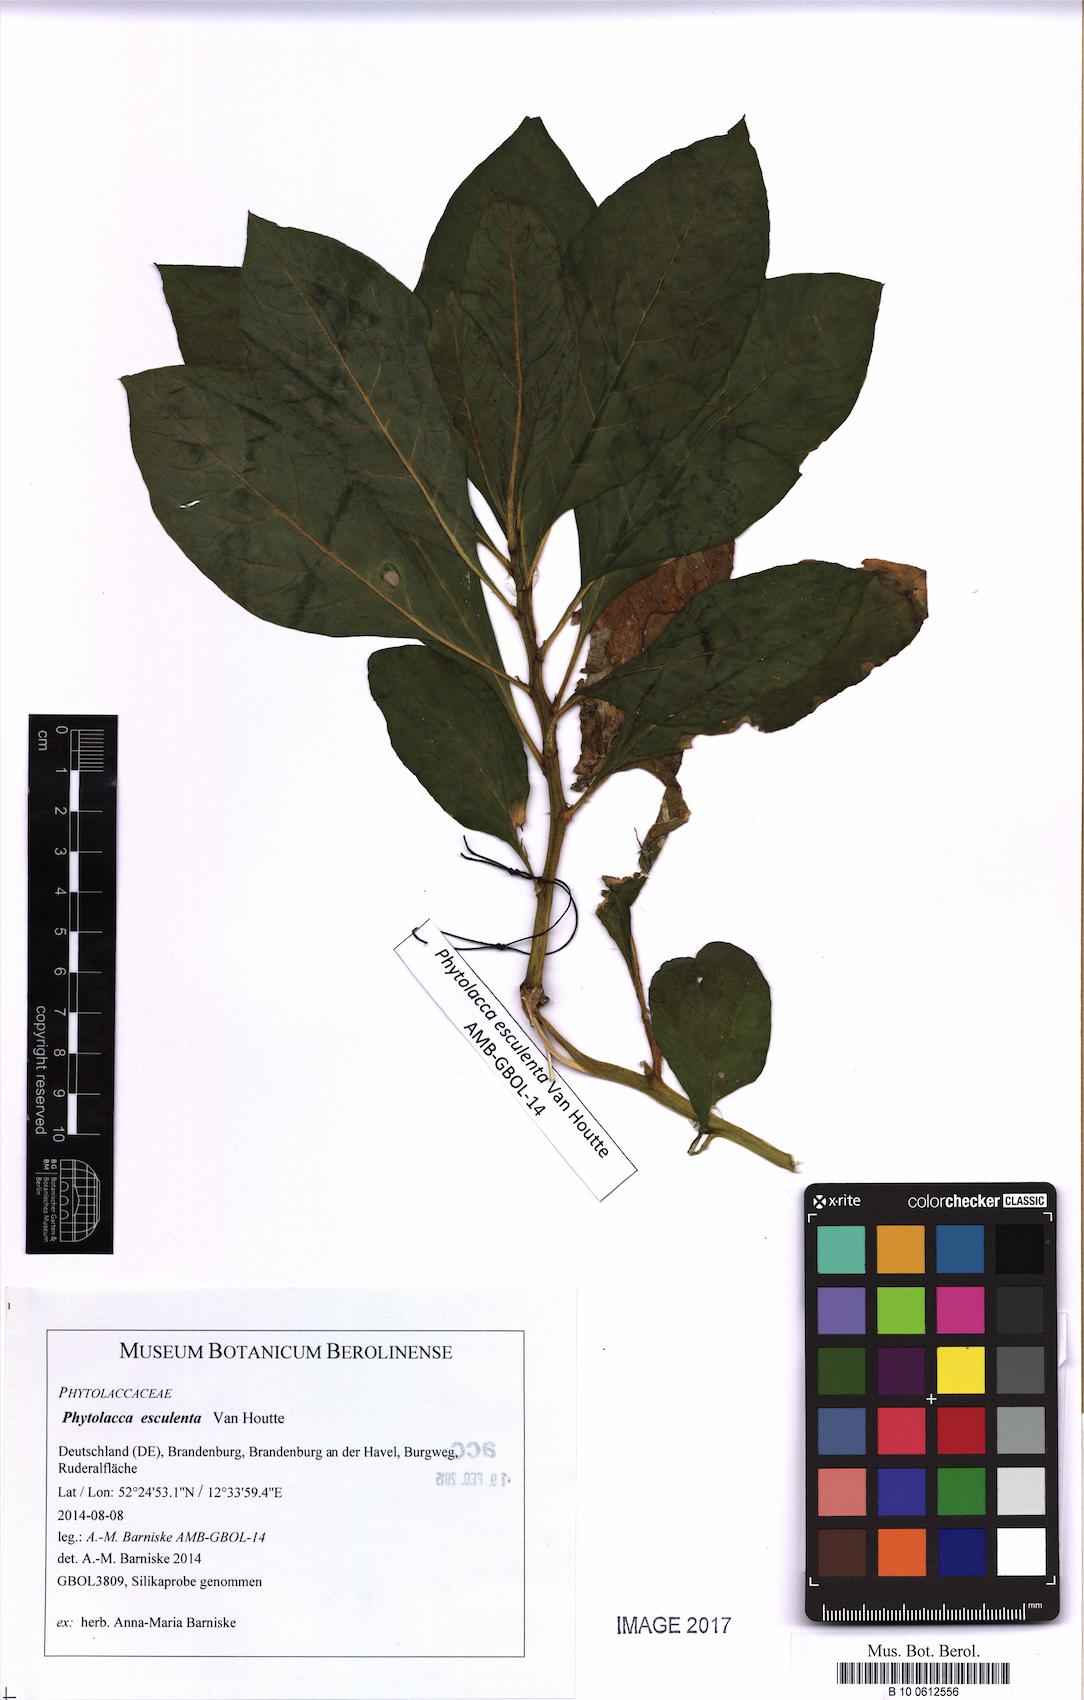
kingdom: Plantae
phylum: Tracheophyta
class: Magnoliopsida
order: Caryophyllales
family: Phytolaccaceae
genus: Phytolacca
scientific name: Phytolacca acinosa
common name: Indian pokeweed
